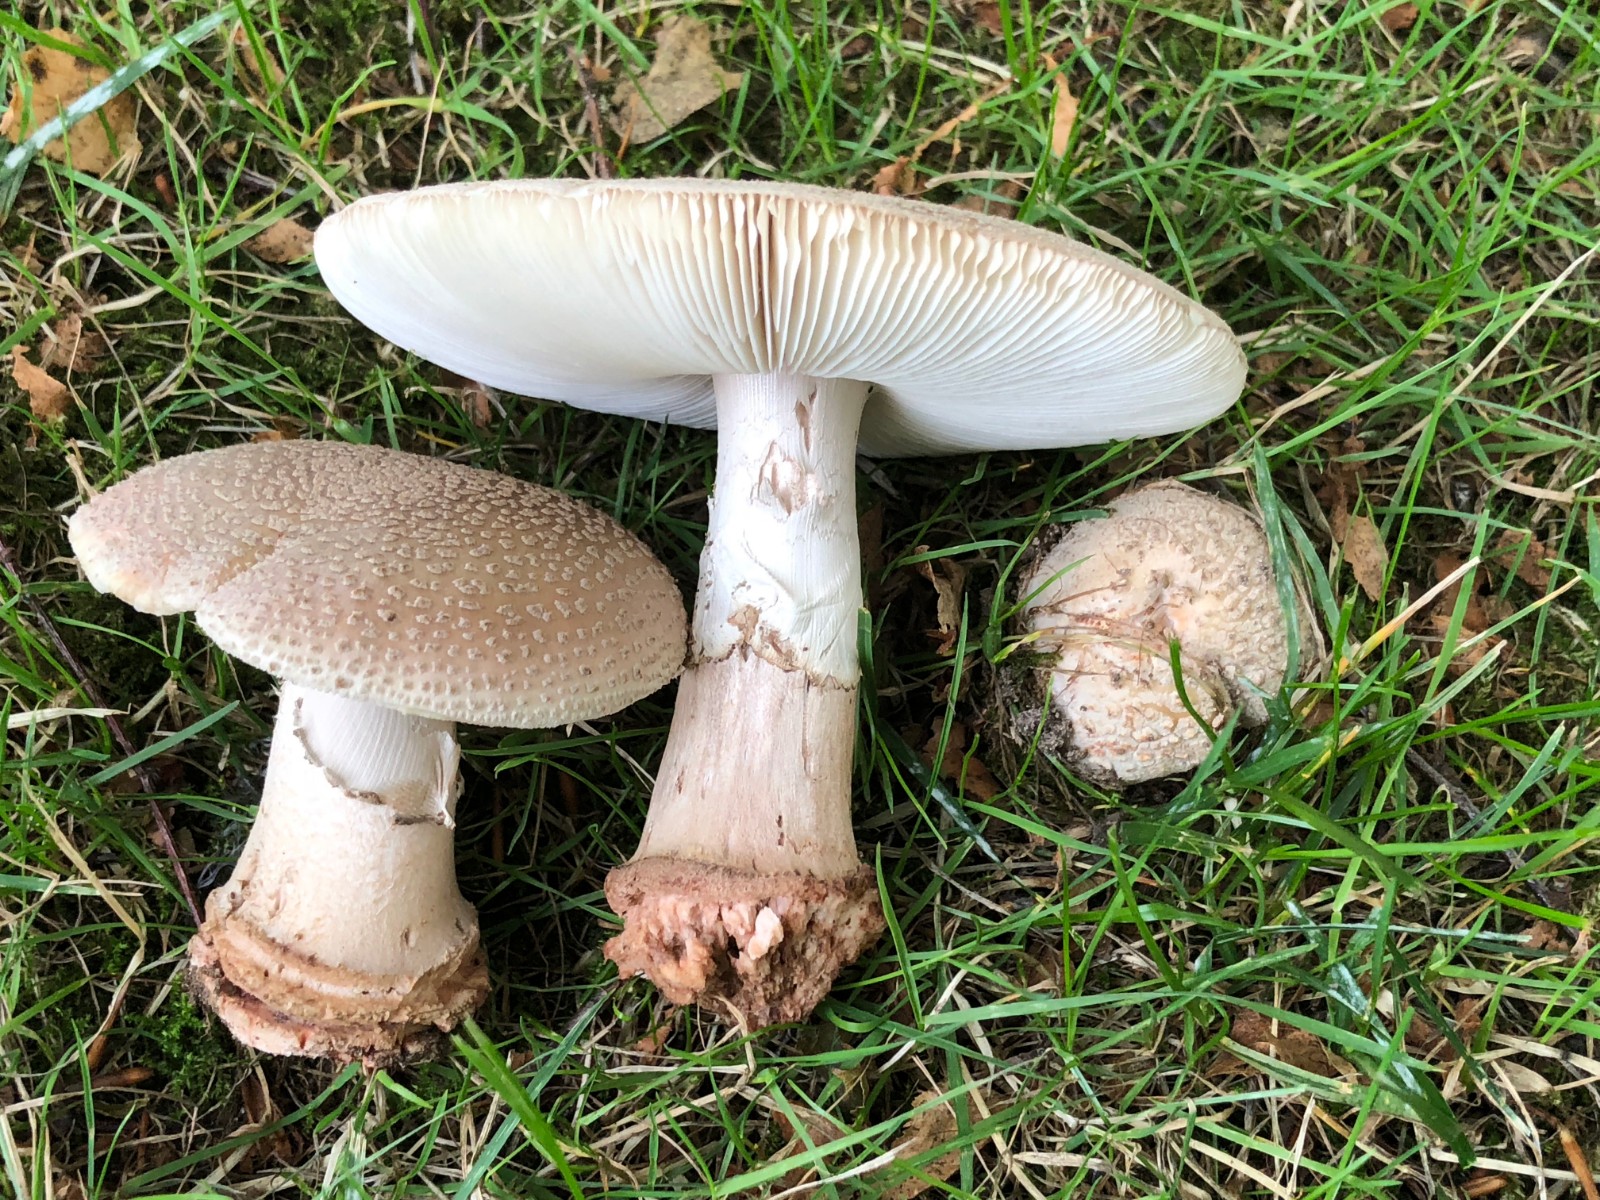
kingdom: Fungi
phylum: Basidiomycota
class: Agaricomycetes
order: Agaricales
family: Amanitaceae
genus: Amanita
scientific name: Amanita rubescens
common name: rødmende fluesvamp
